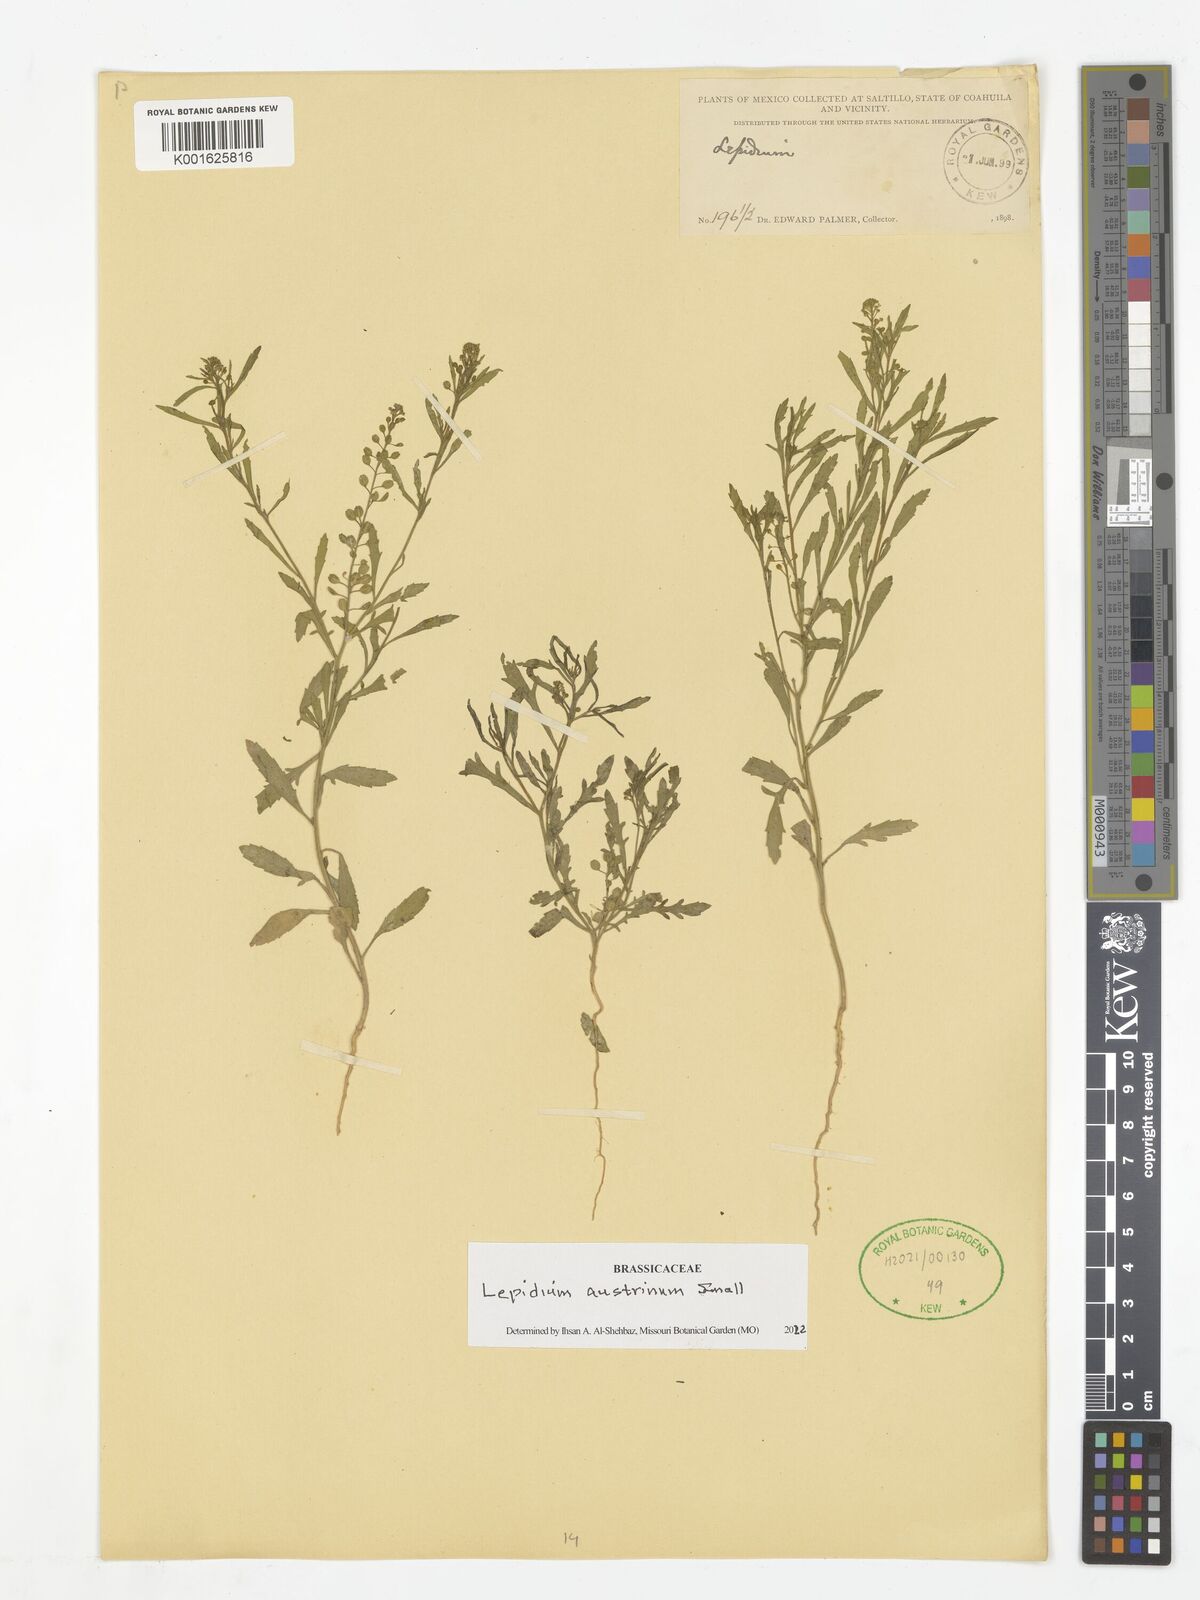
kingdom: Plantae
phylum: Tracheophyta
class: Magnoliopsida
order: Brassicales
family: Brassicaceae
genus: Lepidium
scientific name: Lepidium austrinum
